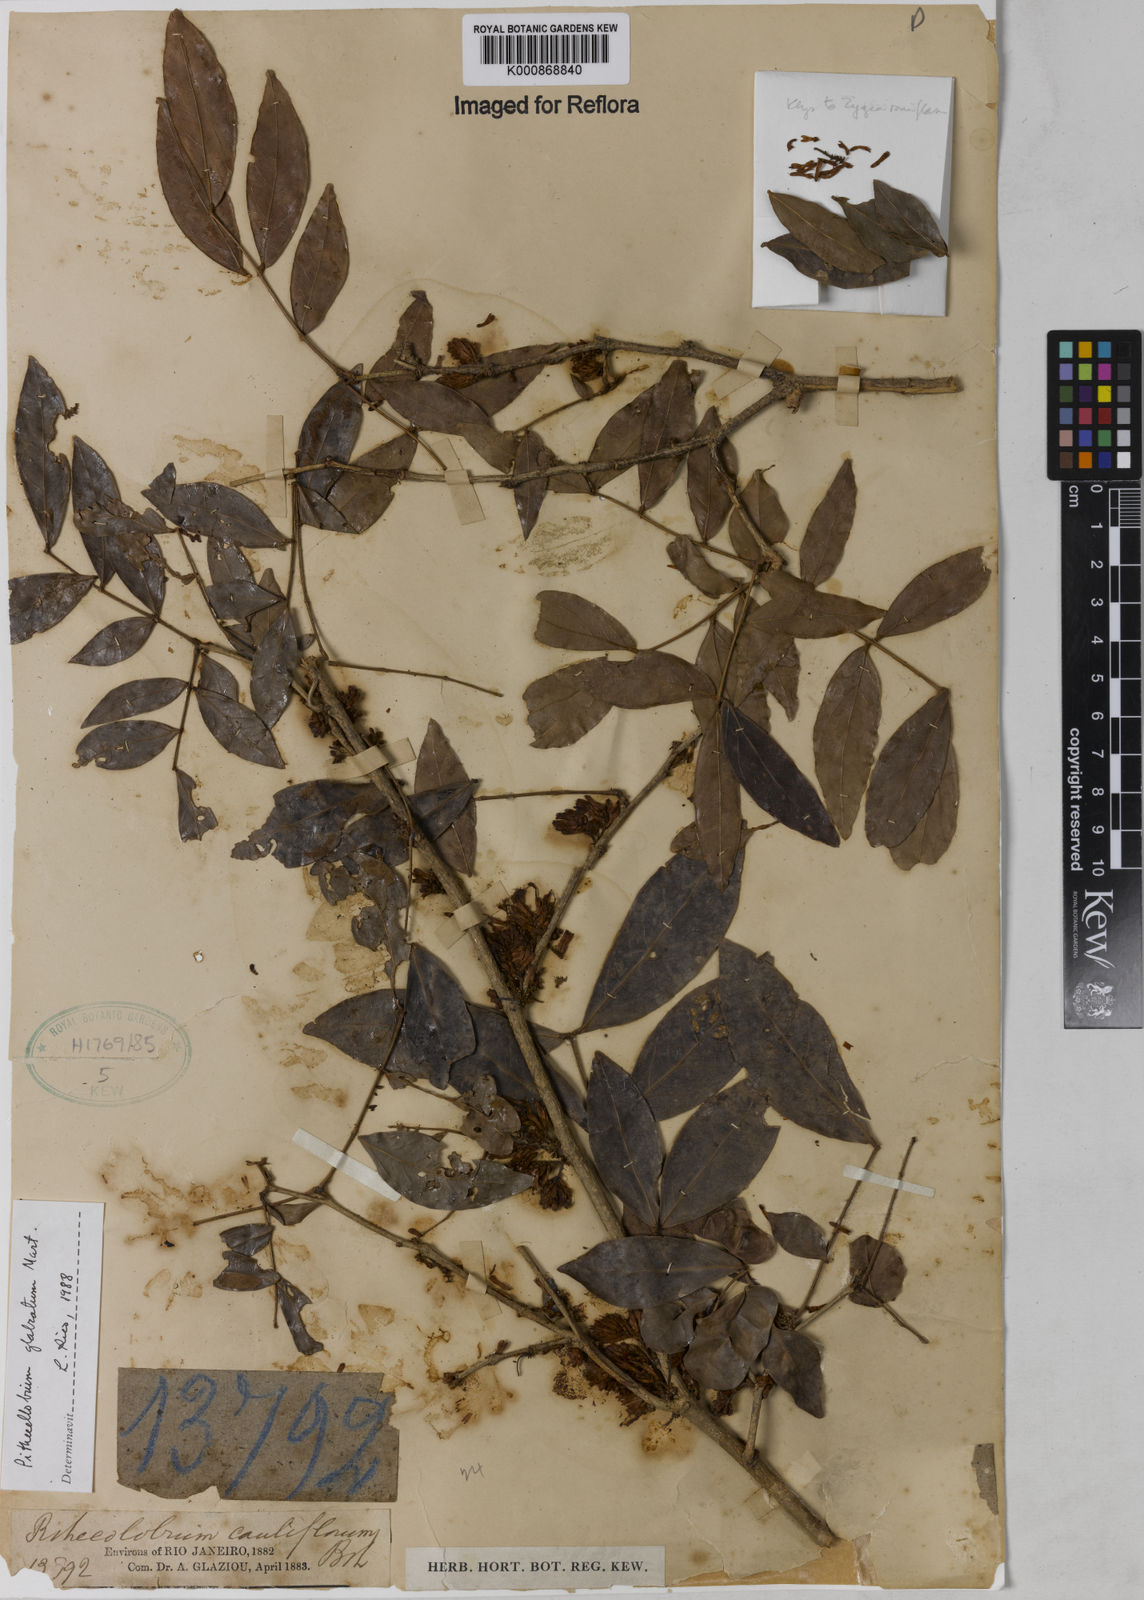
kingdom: Plantae
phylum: Tracheophyta
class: Magnoliopsida
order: Fabales
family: Fabaceae
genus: Zygia
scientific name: Zygia
